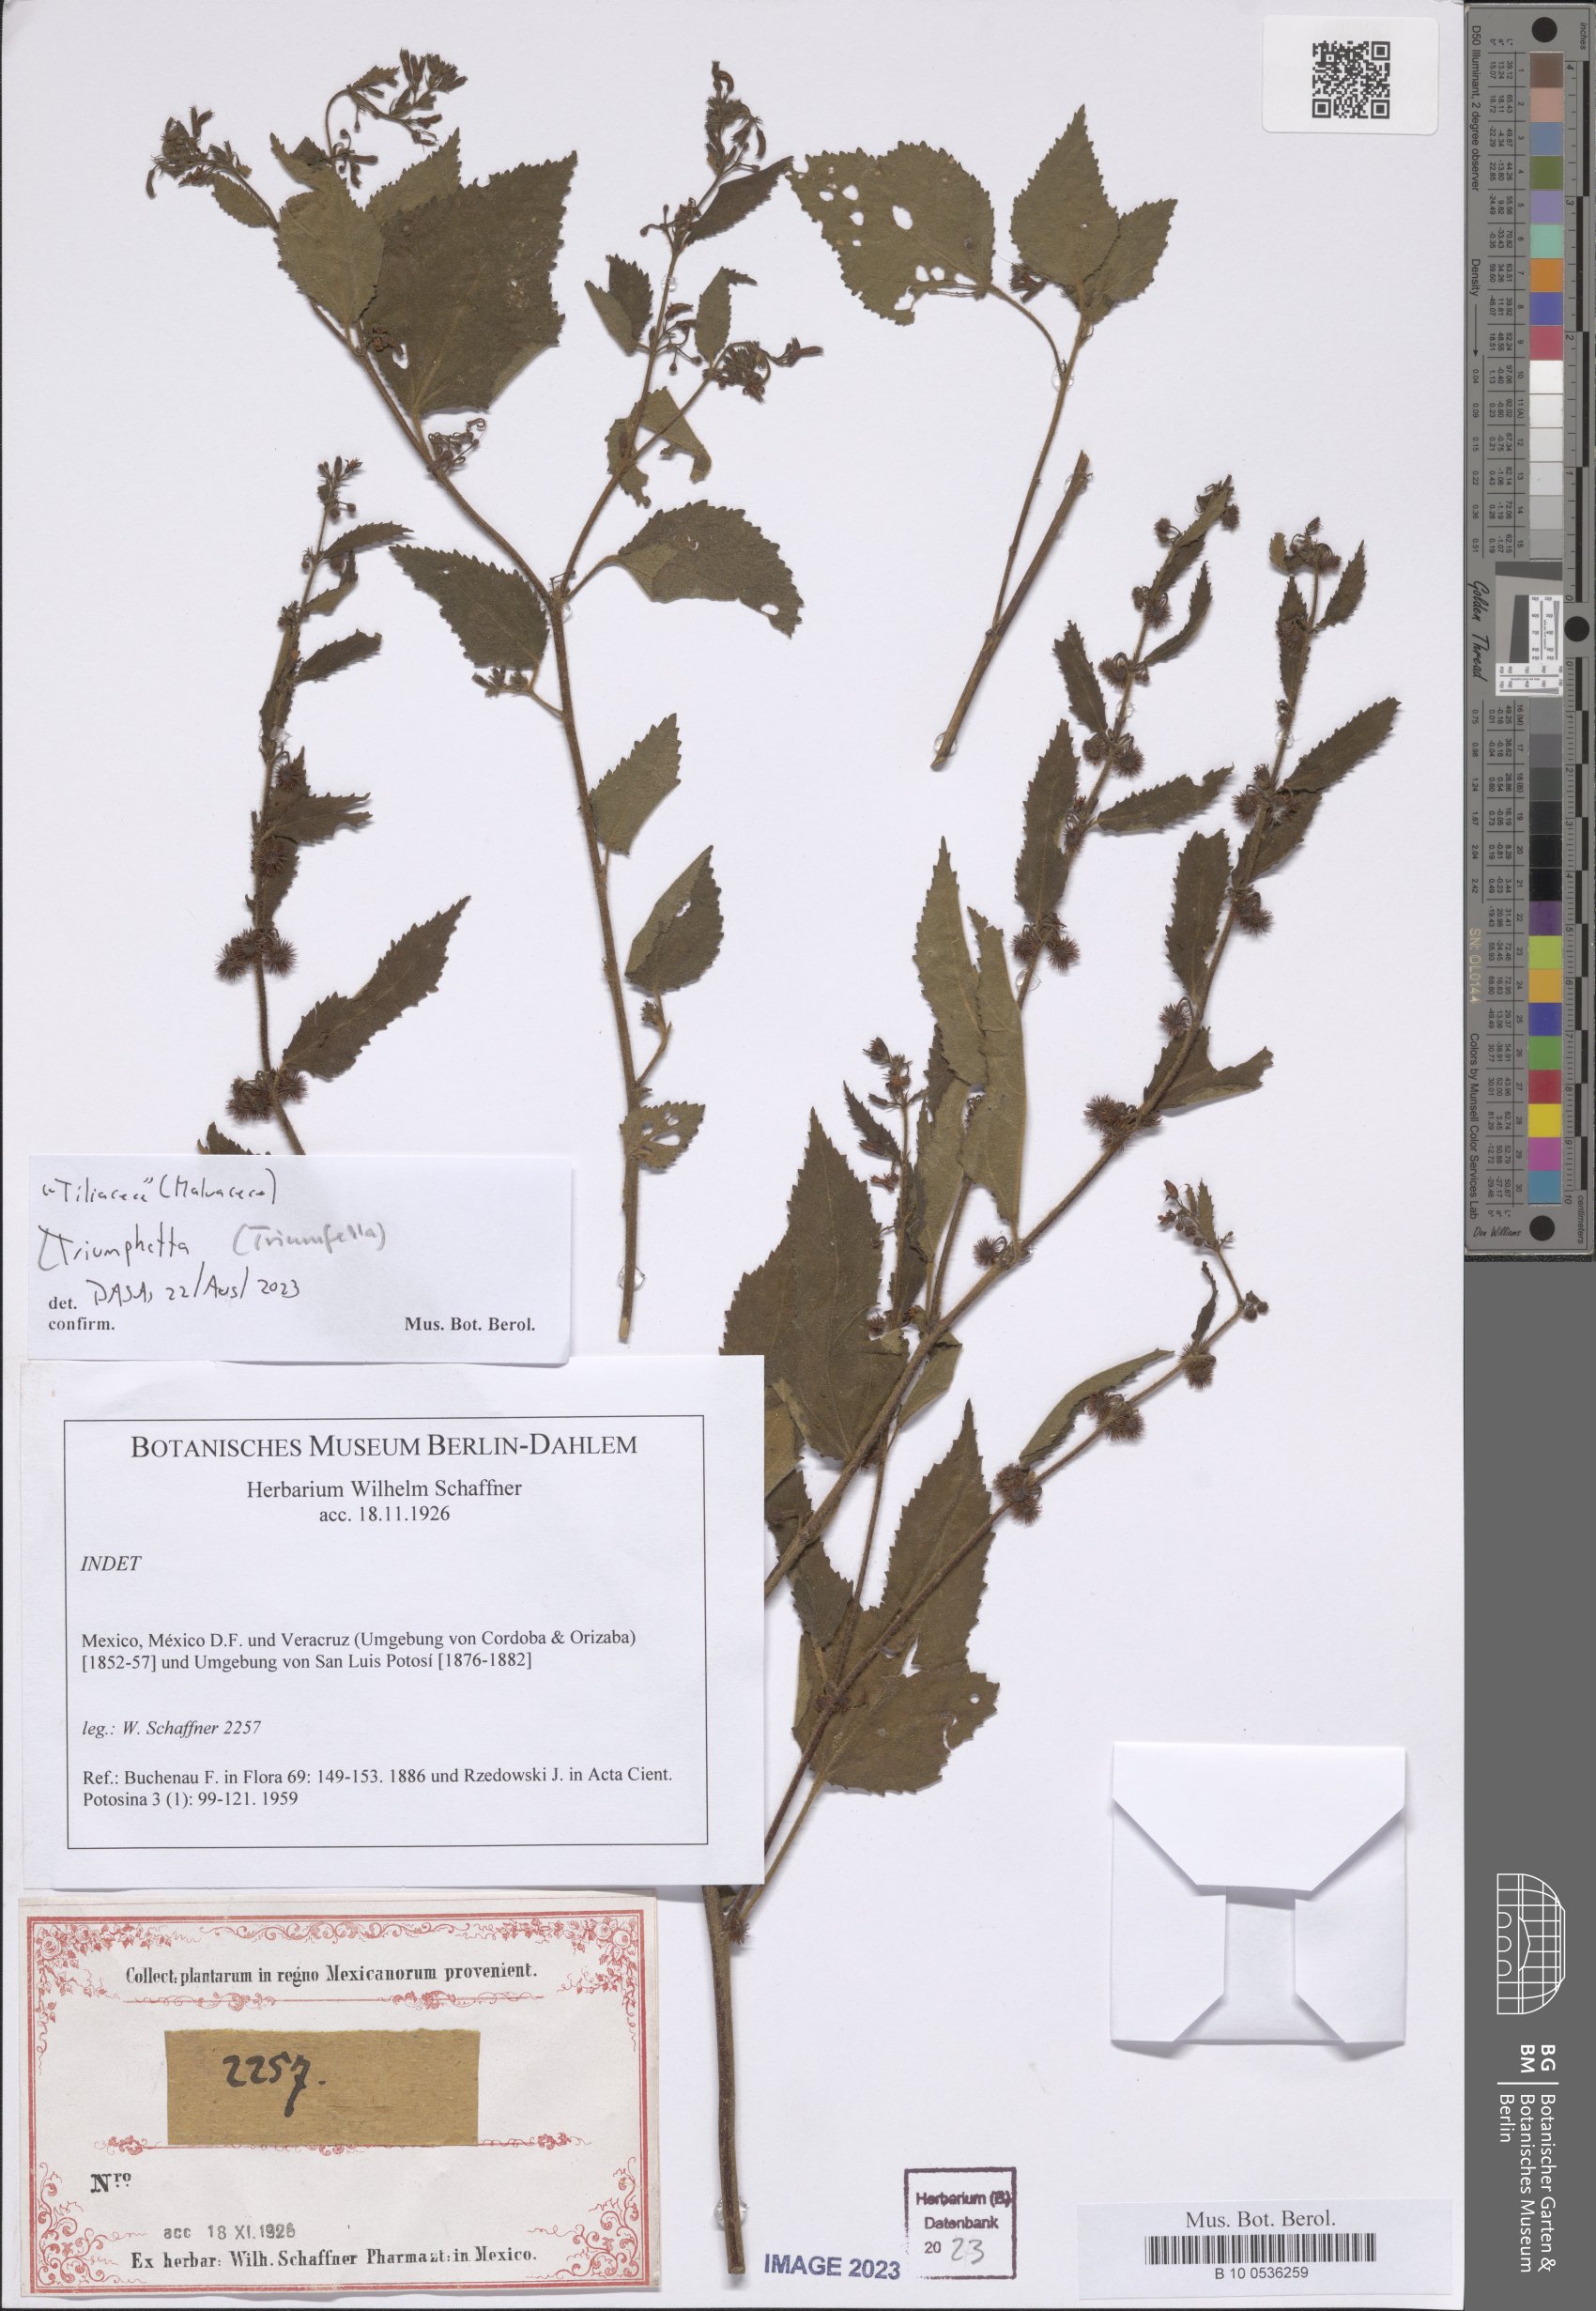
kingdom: Plantae
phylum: Tracheophyta
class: Magnoliopsida
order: Malvales
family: Malvaceae
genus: Triumfetta
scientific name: Triumfetta
